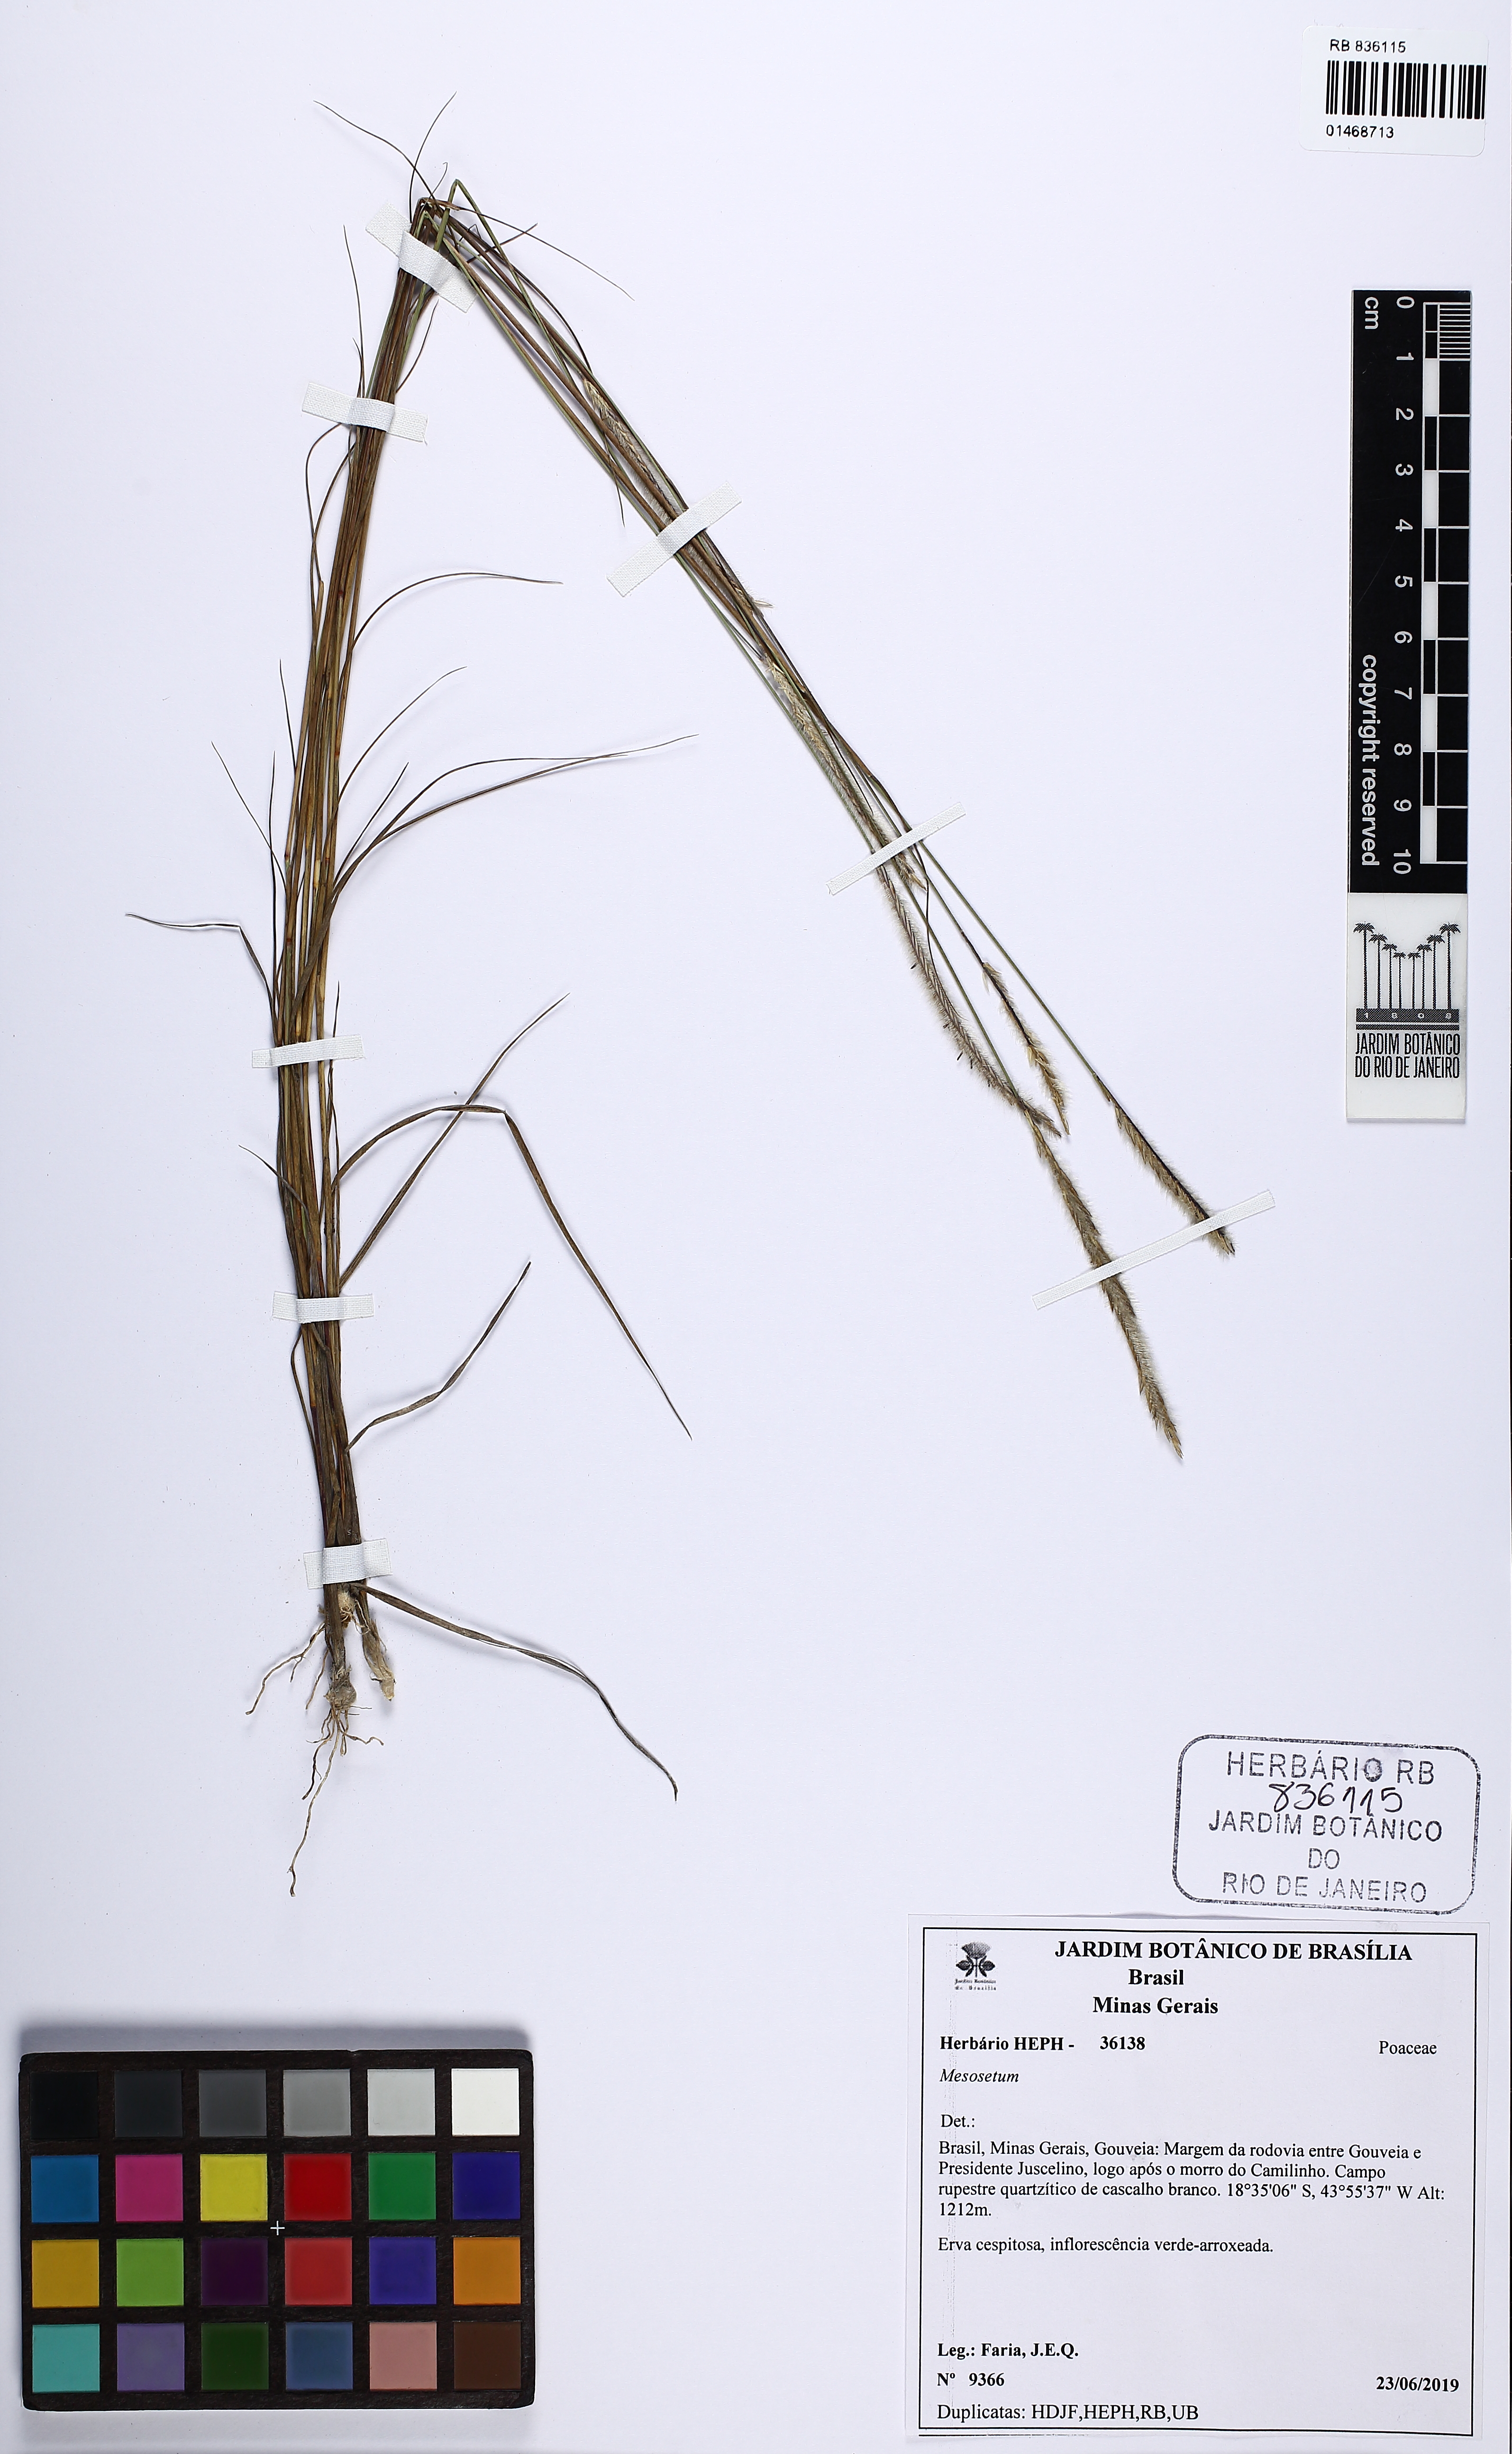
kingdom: Plantae
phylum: Tracheophyta
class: Liliopsida
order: Poales
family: Poaceae
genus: Mesosetum
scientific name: Mesosetum
